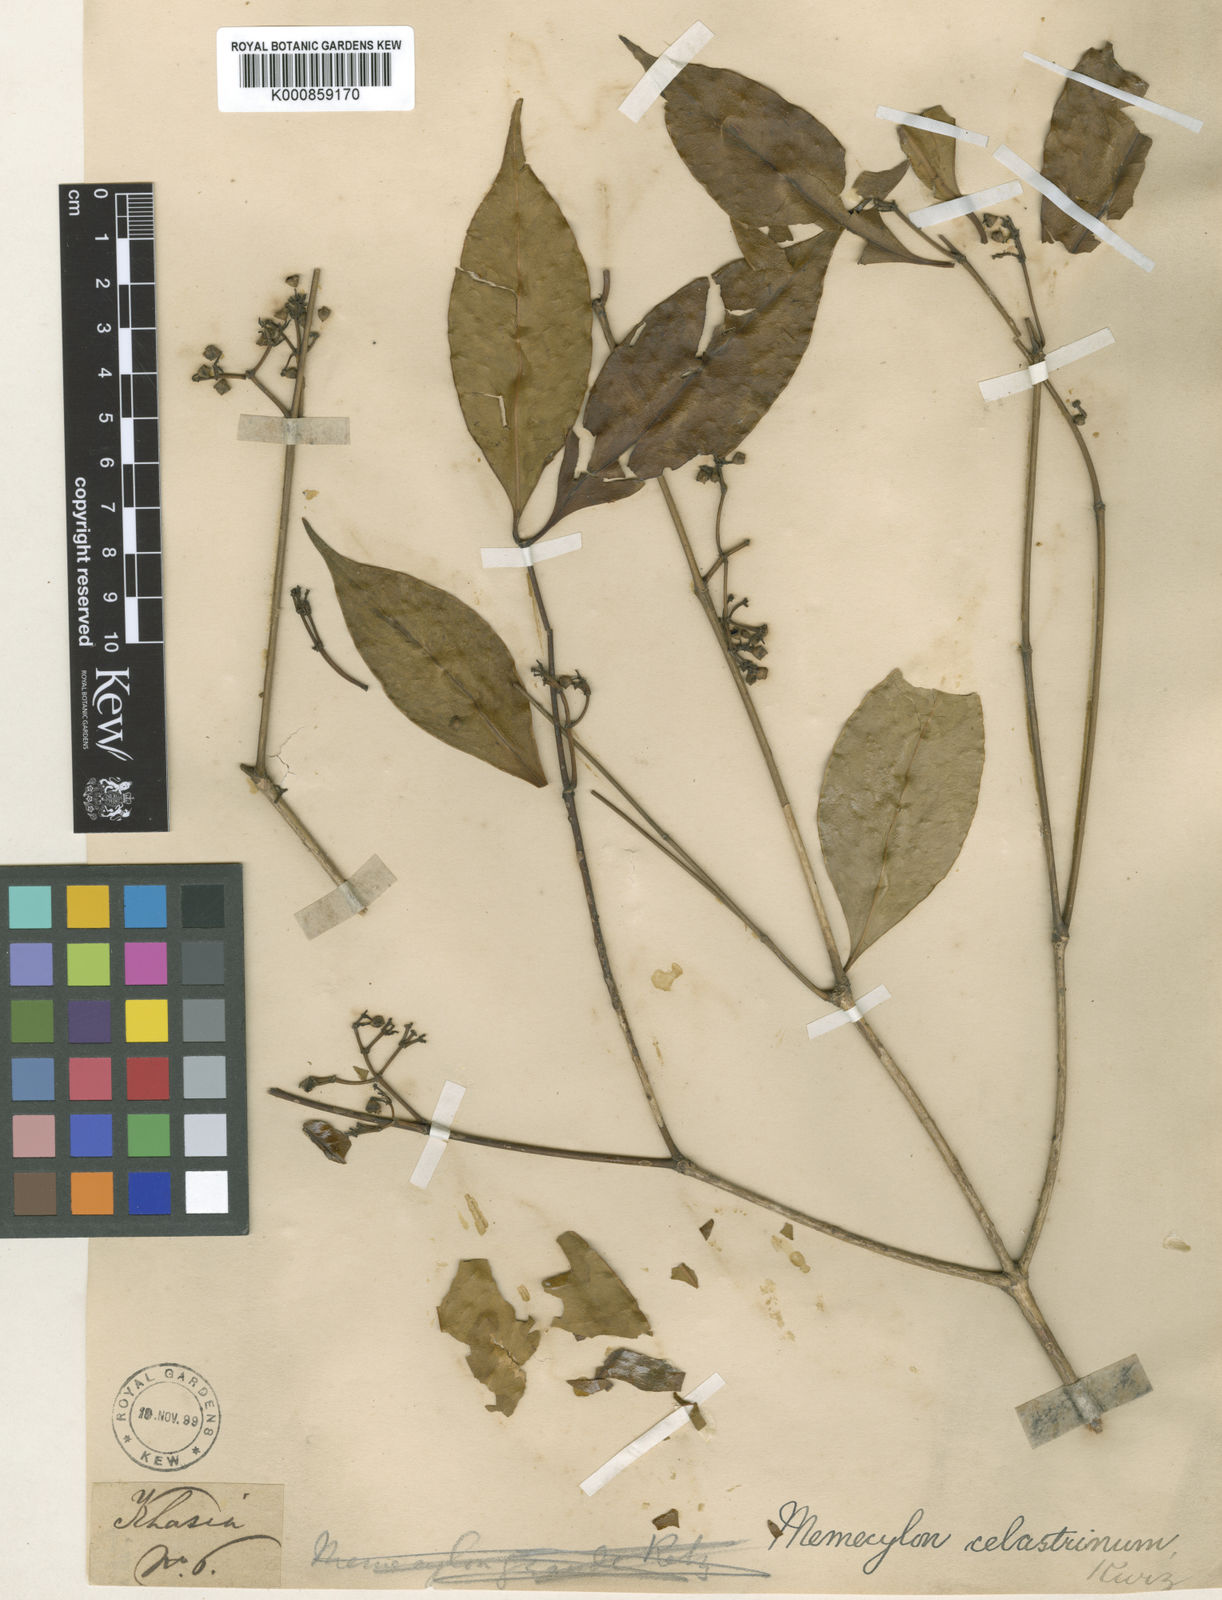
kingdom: Plantae
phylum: Tracheophyta
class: Magnoliopsida
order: Myrtales
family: Melastomataceae
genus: Memecylon
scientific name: Memecylon
